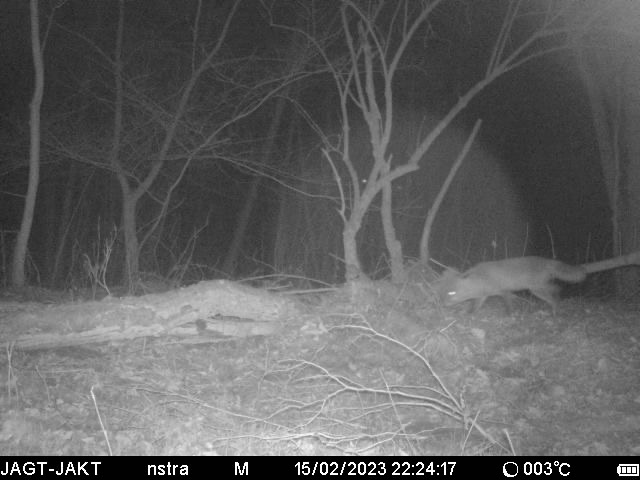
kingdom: Animalia
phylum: Chordata
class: Mammalia
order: Carnivora
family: Canidae
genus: Vulpes
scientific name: Vulpes vulpes
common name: Ræv
